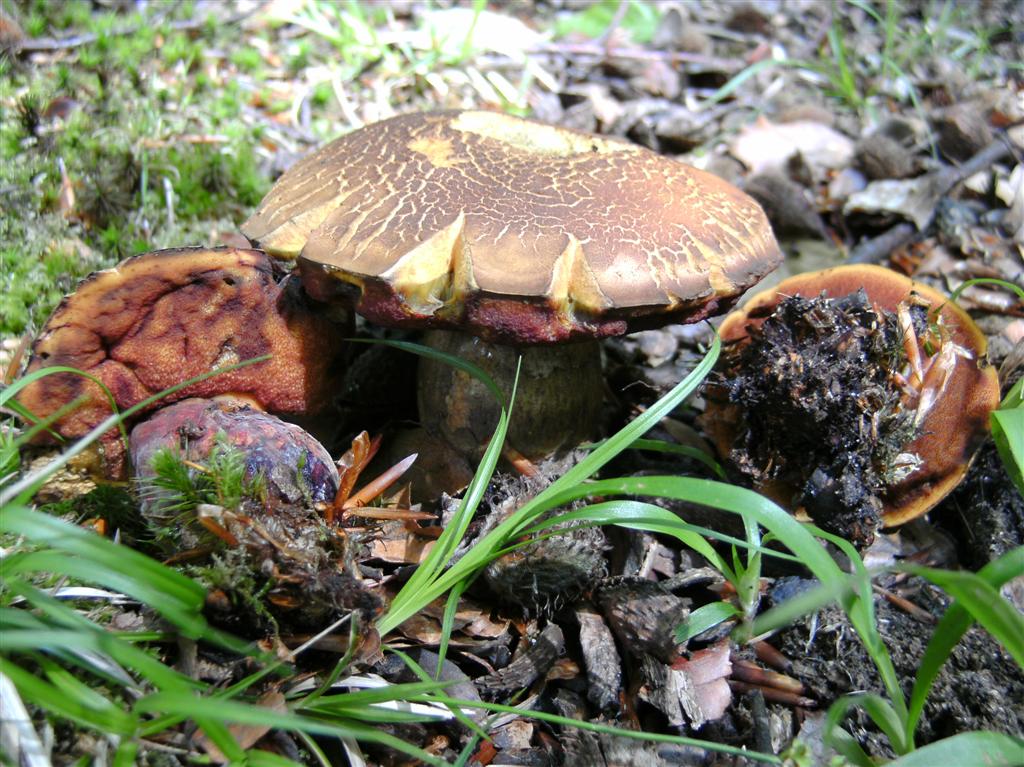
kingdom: Fungi
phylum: Basidiomycota
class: Agaricomycetes
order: Boletales
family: Boletaceae
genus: Neoboletus
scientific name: Neoboletus erythropus
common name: punktstokket indigorørhat
